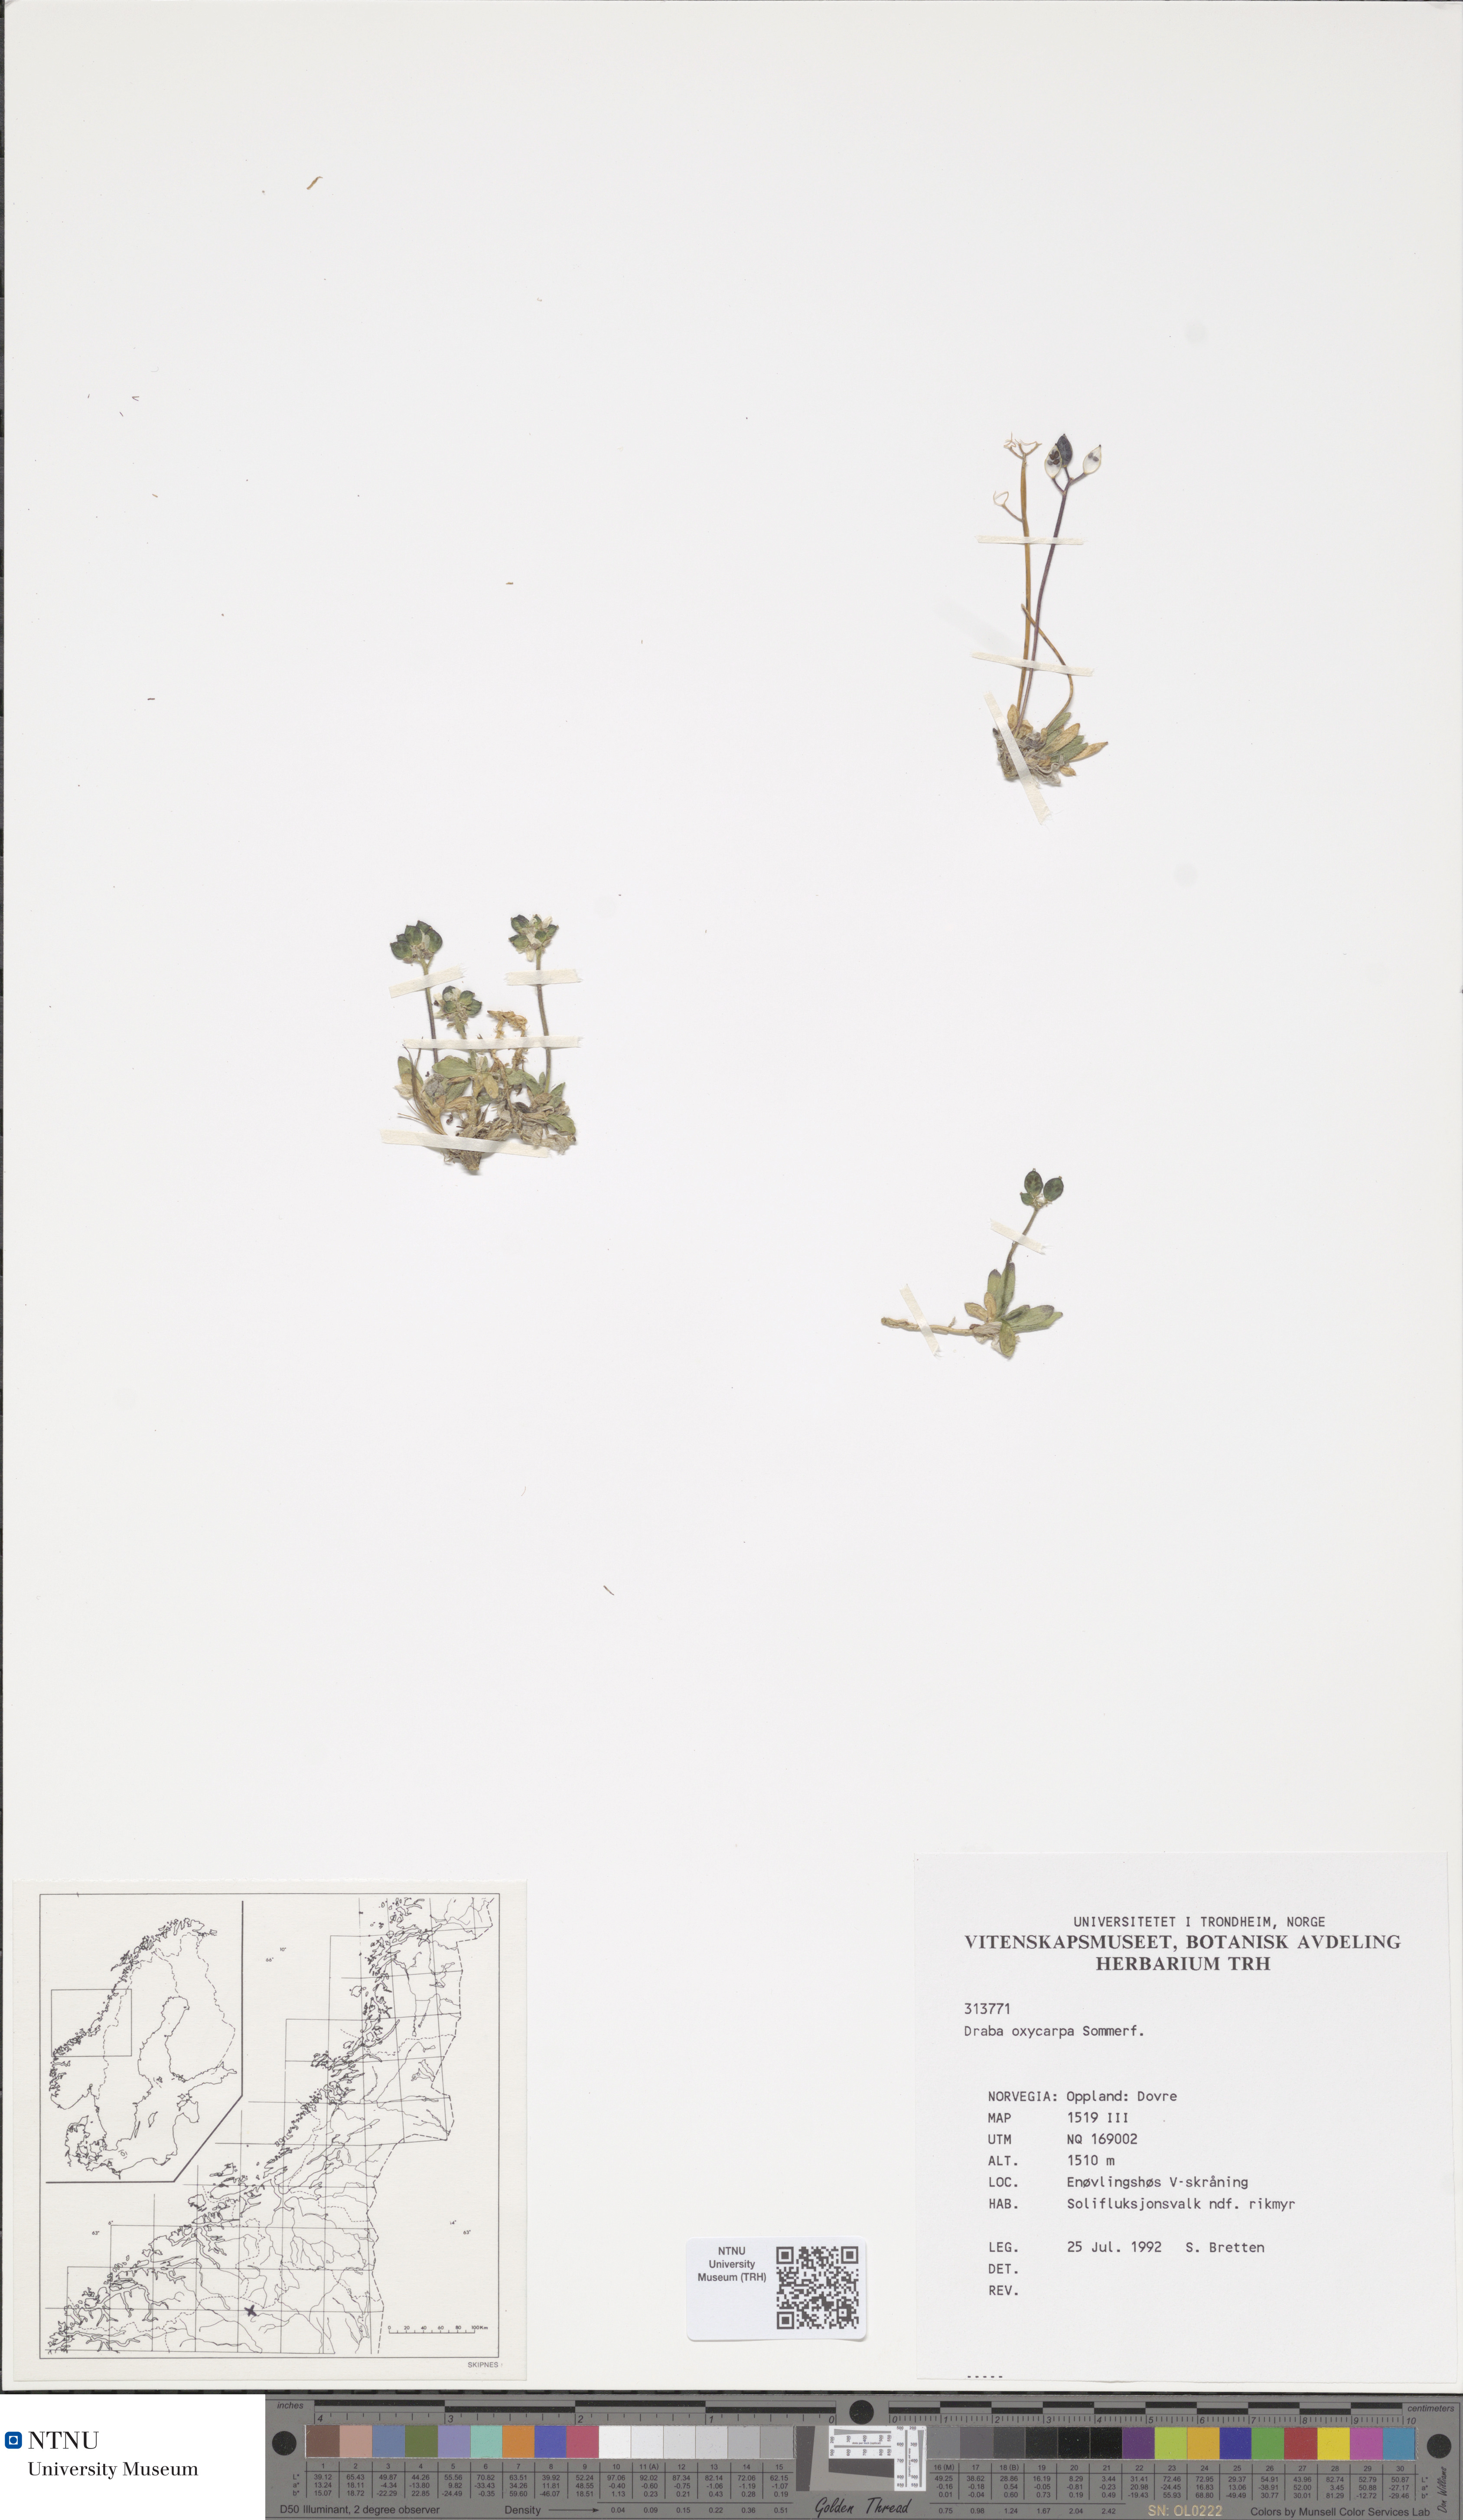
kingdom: Plantae
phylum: Tracheophyta
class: Magnoliopsida
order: Brassicales
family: Brassicaceae
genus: Draba
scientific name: Draba oxycarpa
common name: Sharp-fruited whitlow-grass
